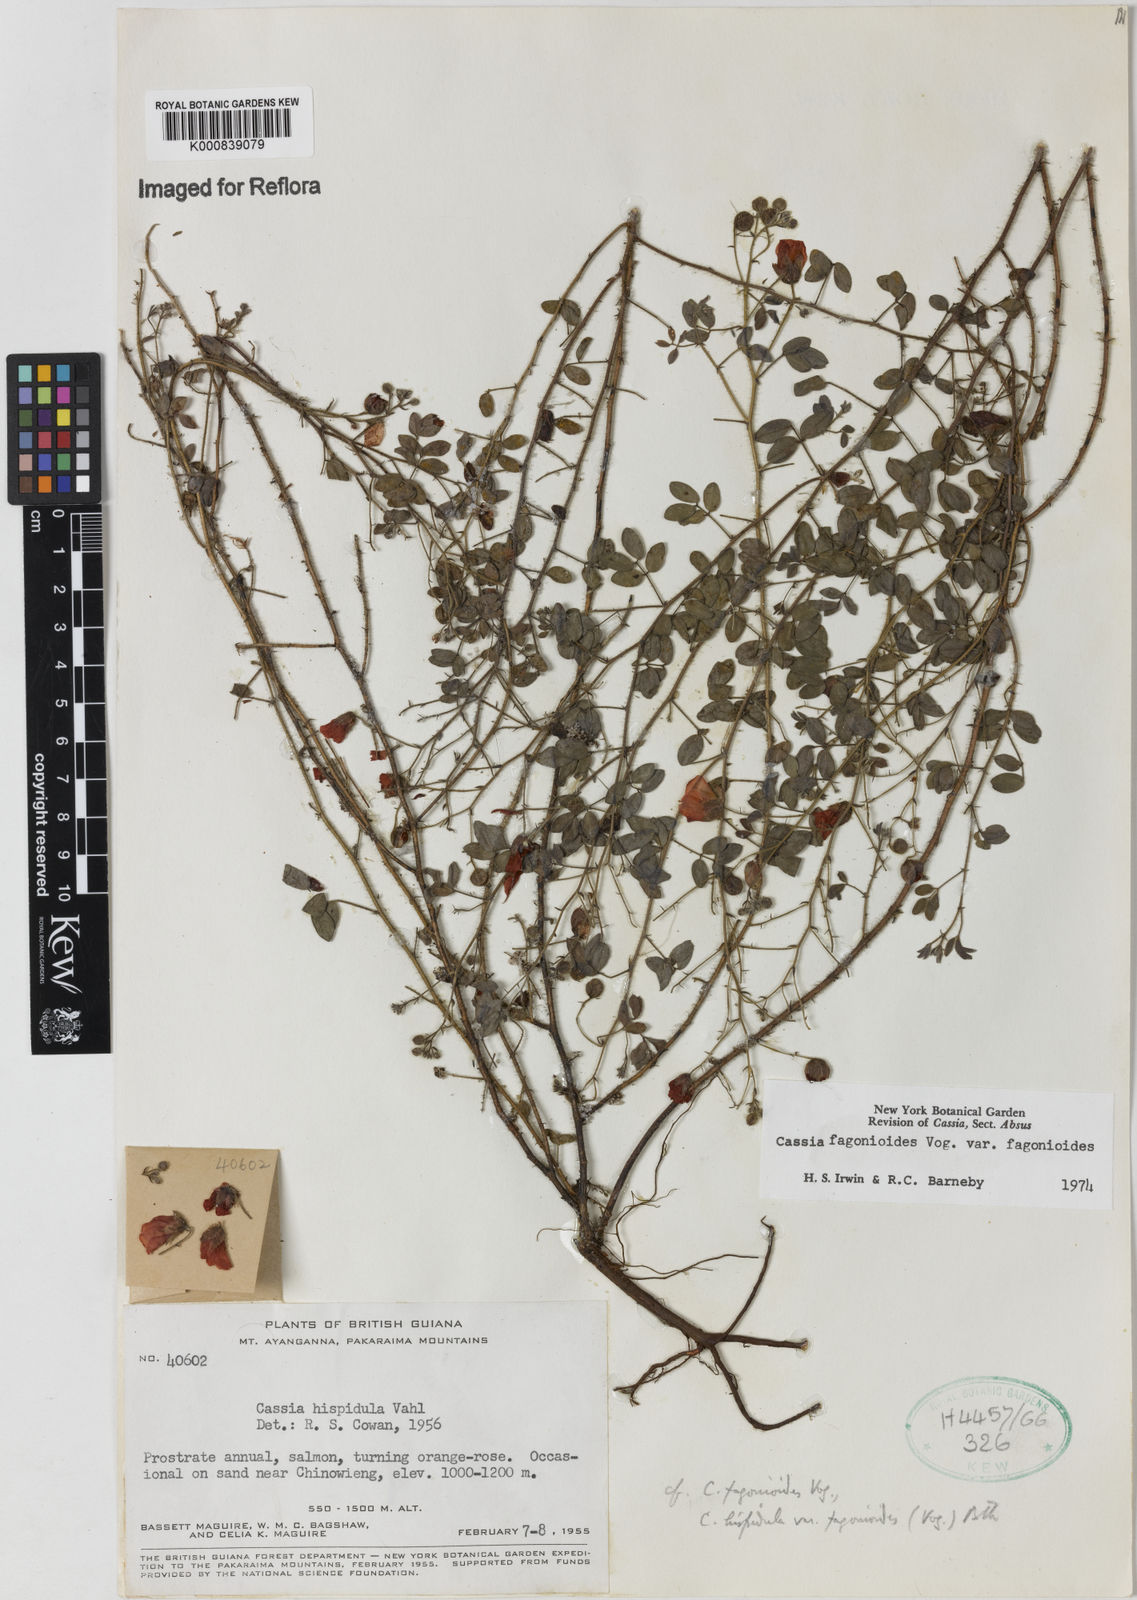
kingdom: Plantae
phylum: Tracheophyta
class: Magnoliopsida
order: Fabales
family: Fabaceae
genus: Chamaecrista
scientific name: Chamaecrista fagonioides
